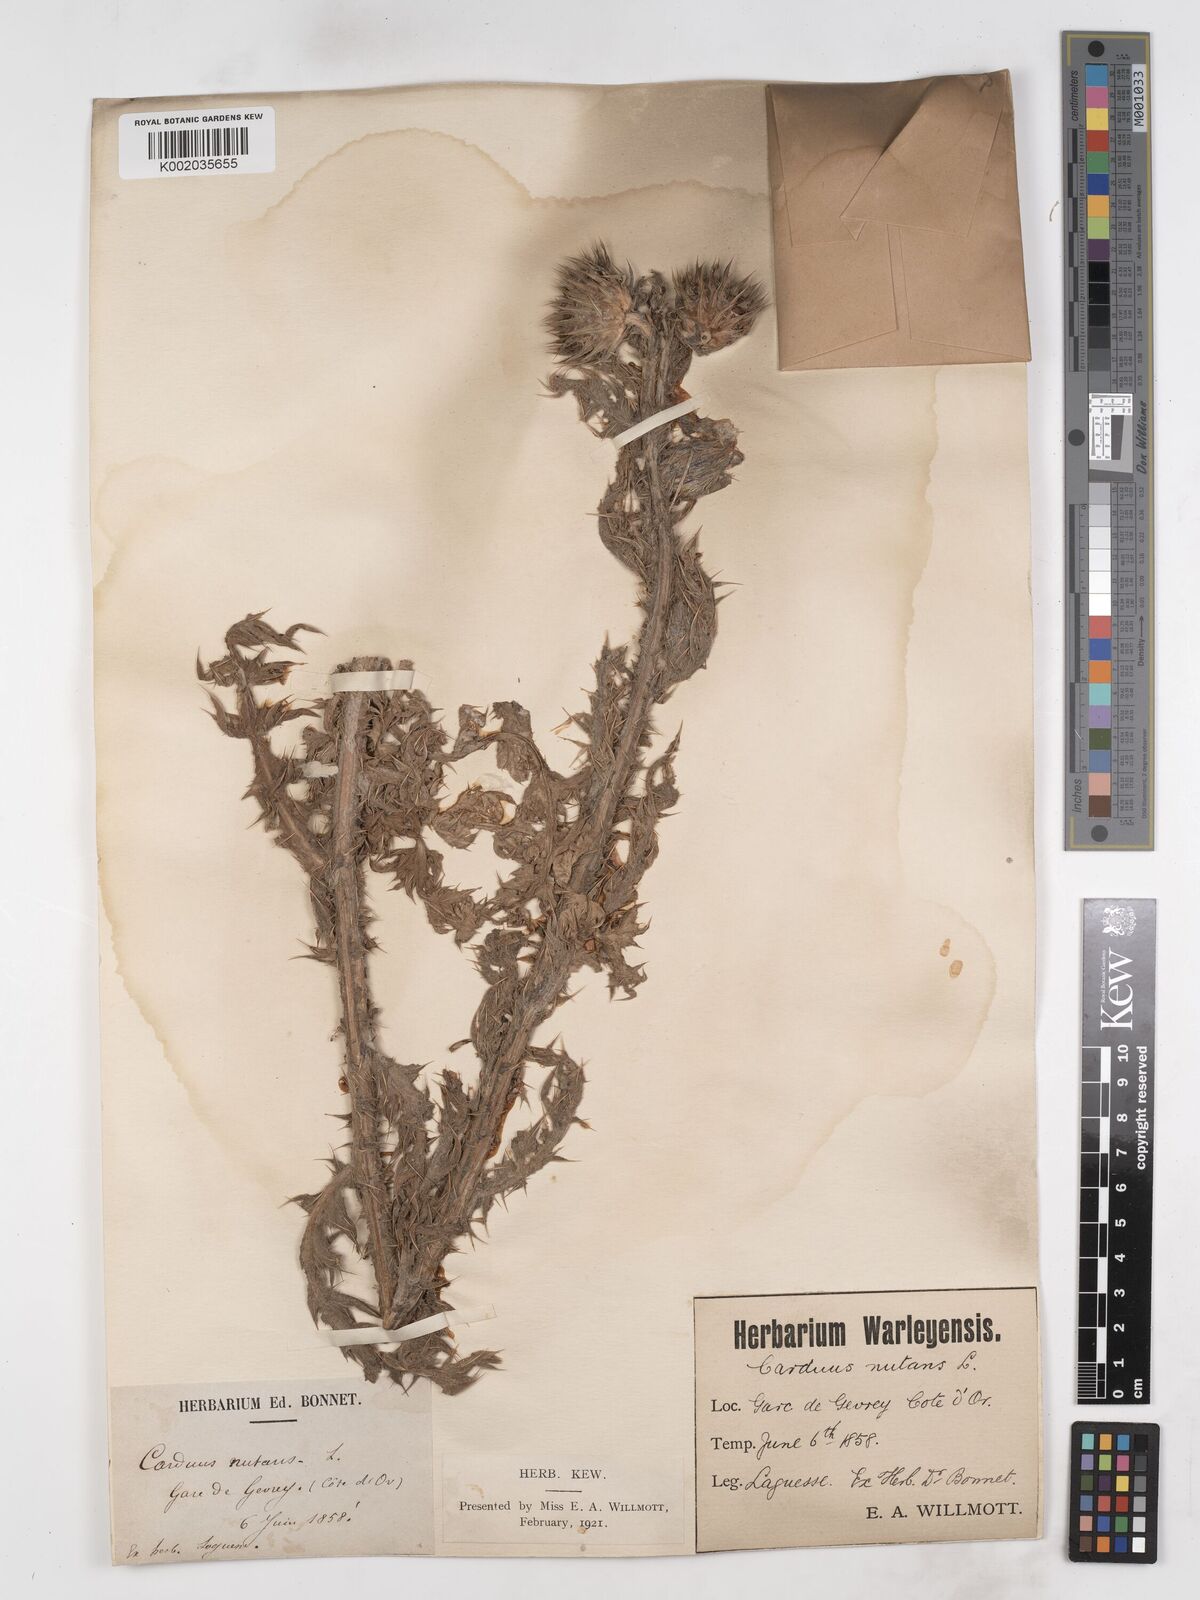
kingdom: Plantae
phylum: Tracheophyta
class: Magnoliopsida
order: Asterales
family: Asteraceae
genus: Carduus
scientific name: Carduus nutans
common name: Musk thistle
